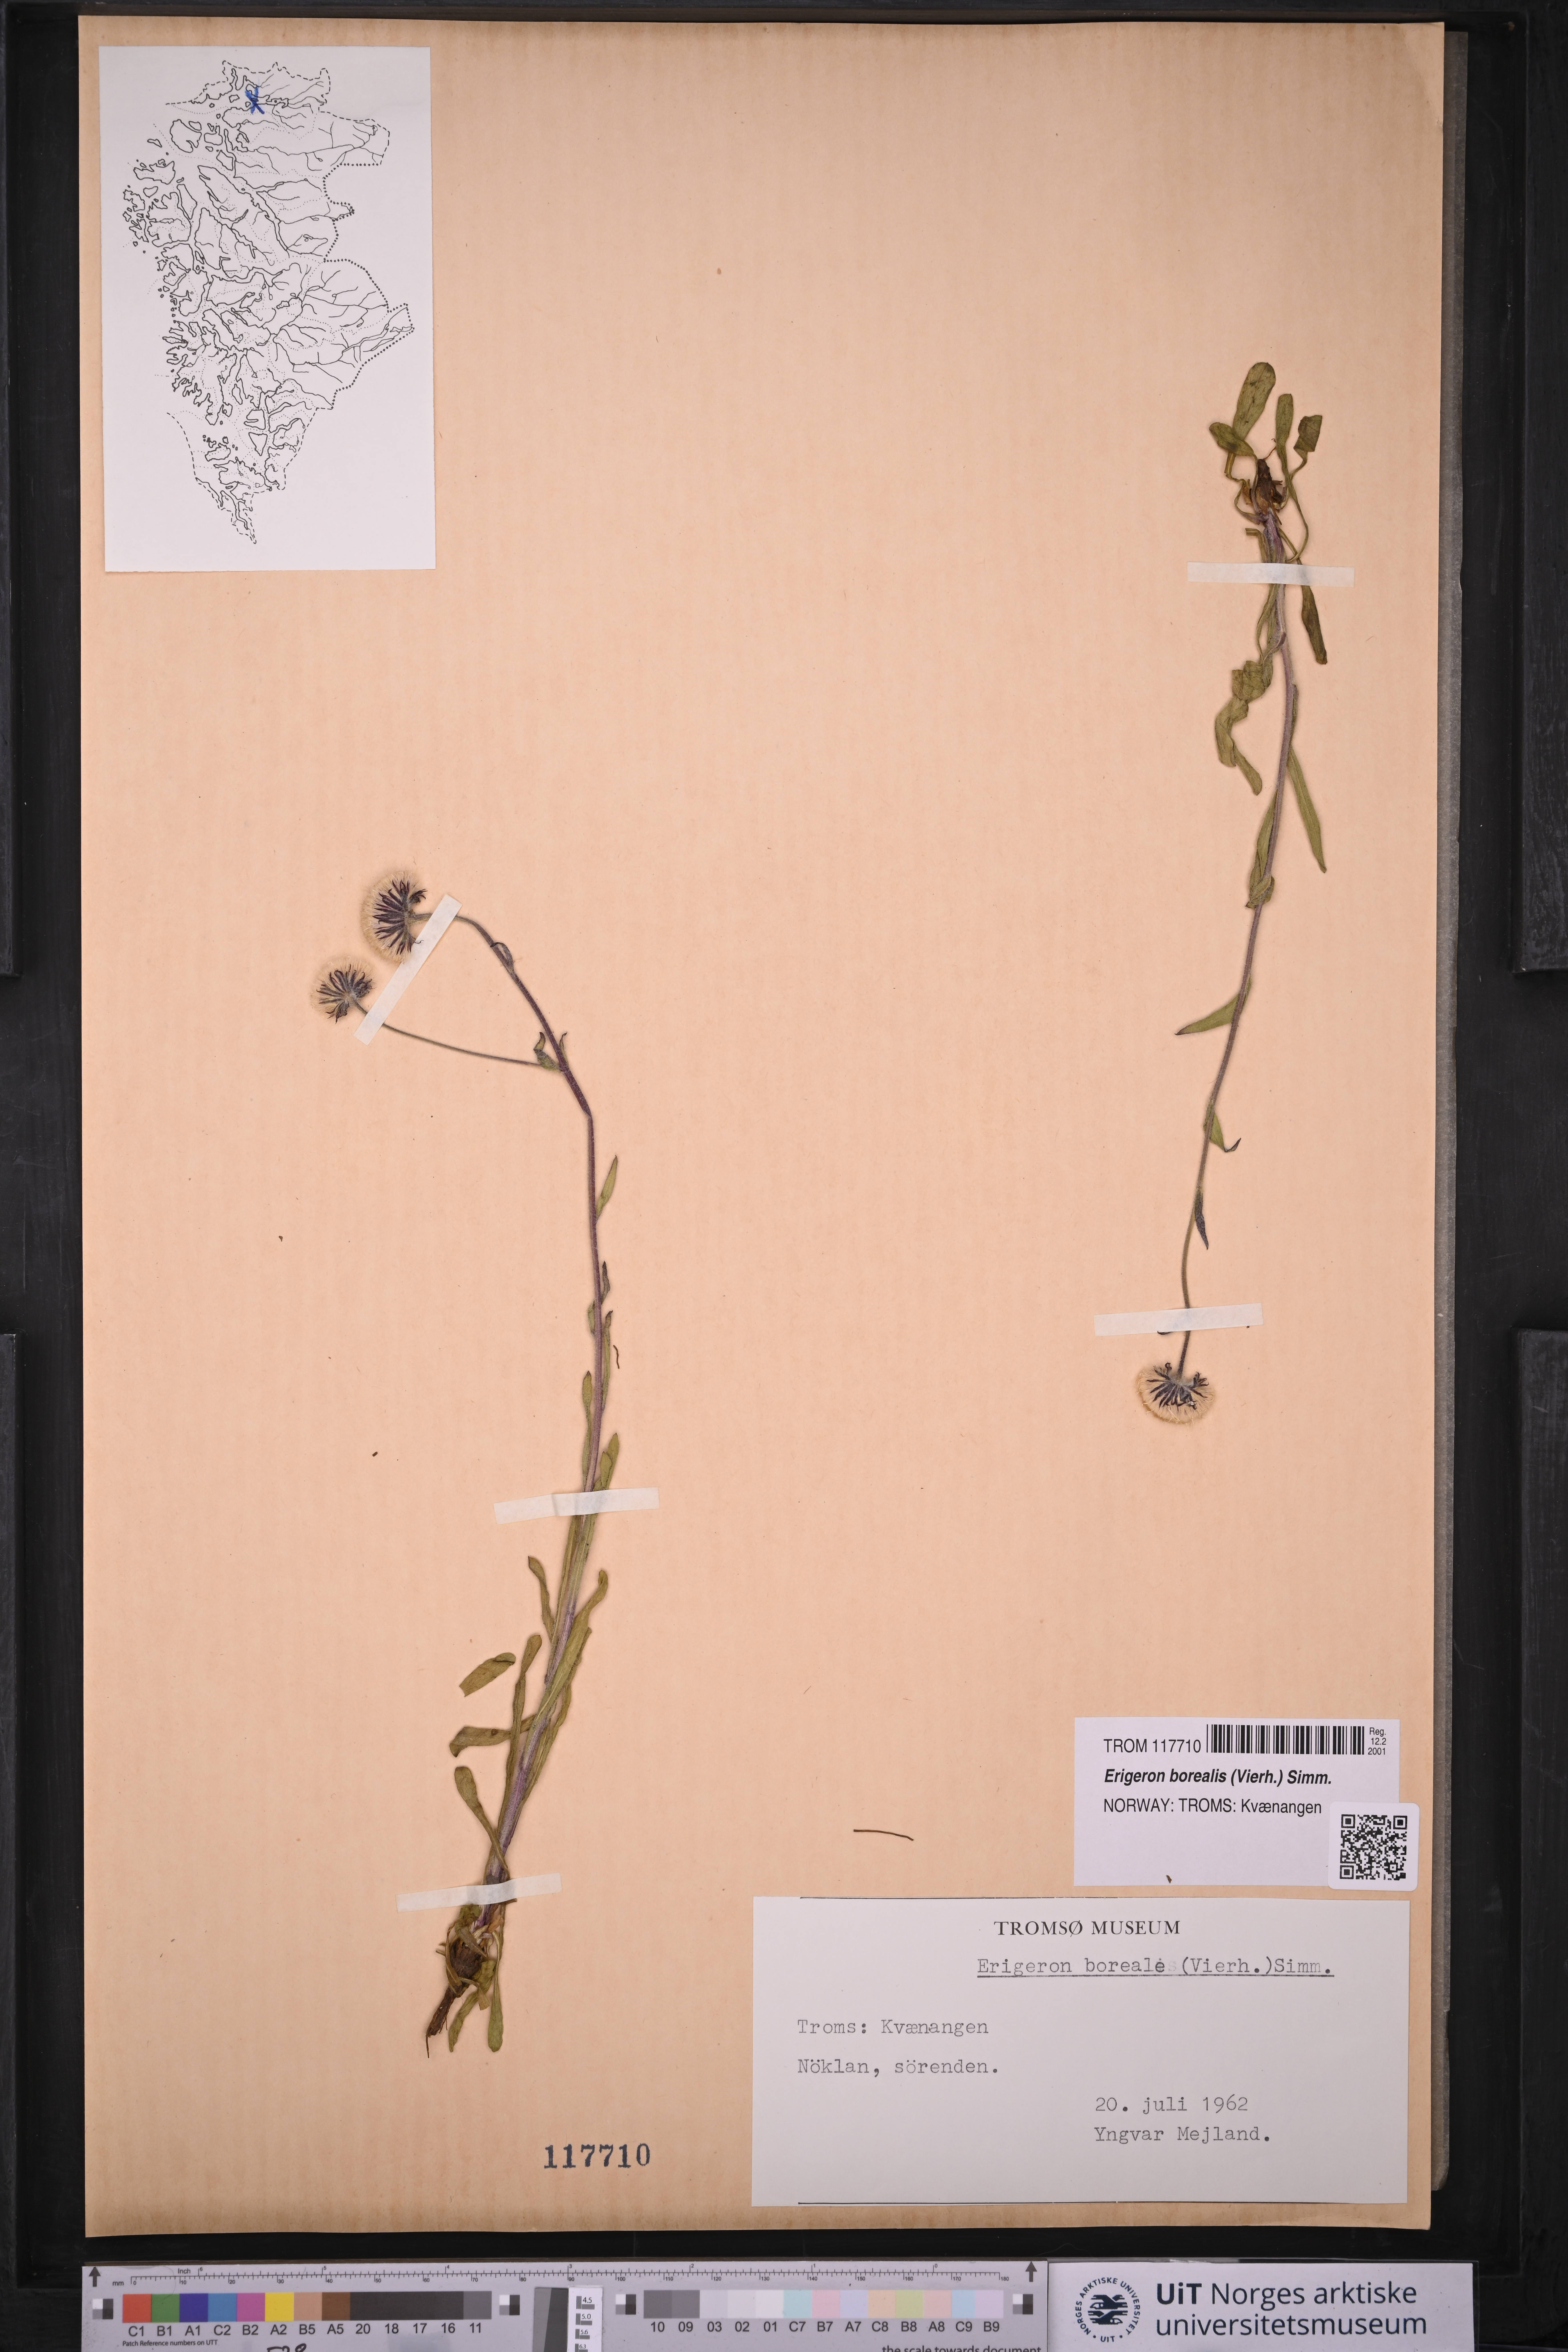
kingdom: Plantae
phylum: Tracheophyta
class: Magnoliopsida
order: Asterales
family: Asteraceae
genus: Erigeron
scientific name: Erigeron borealis
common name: Alpine fleabane
